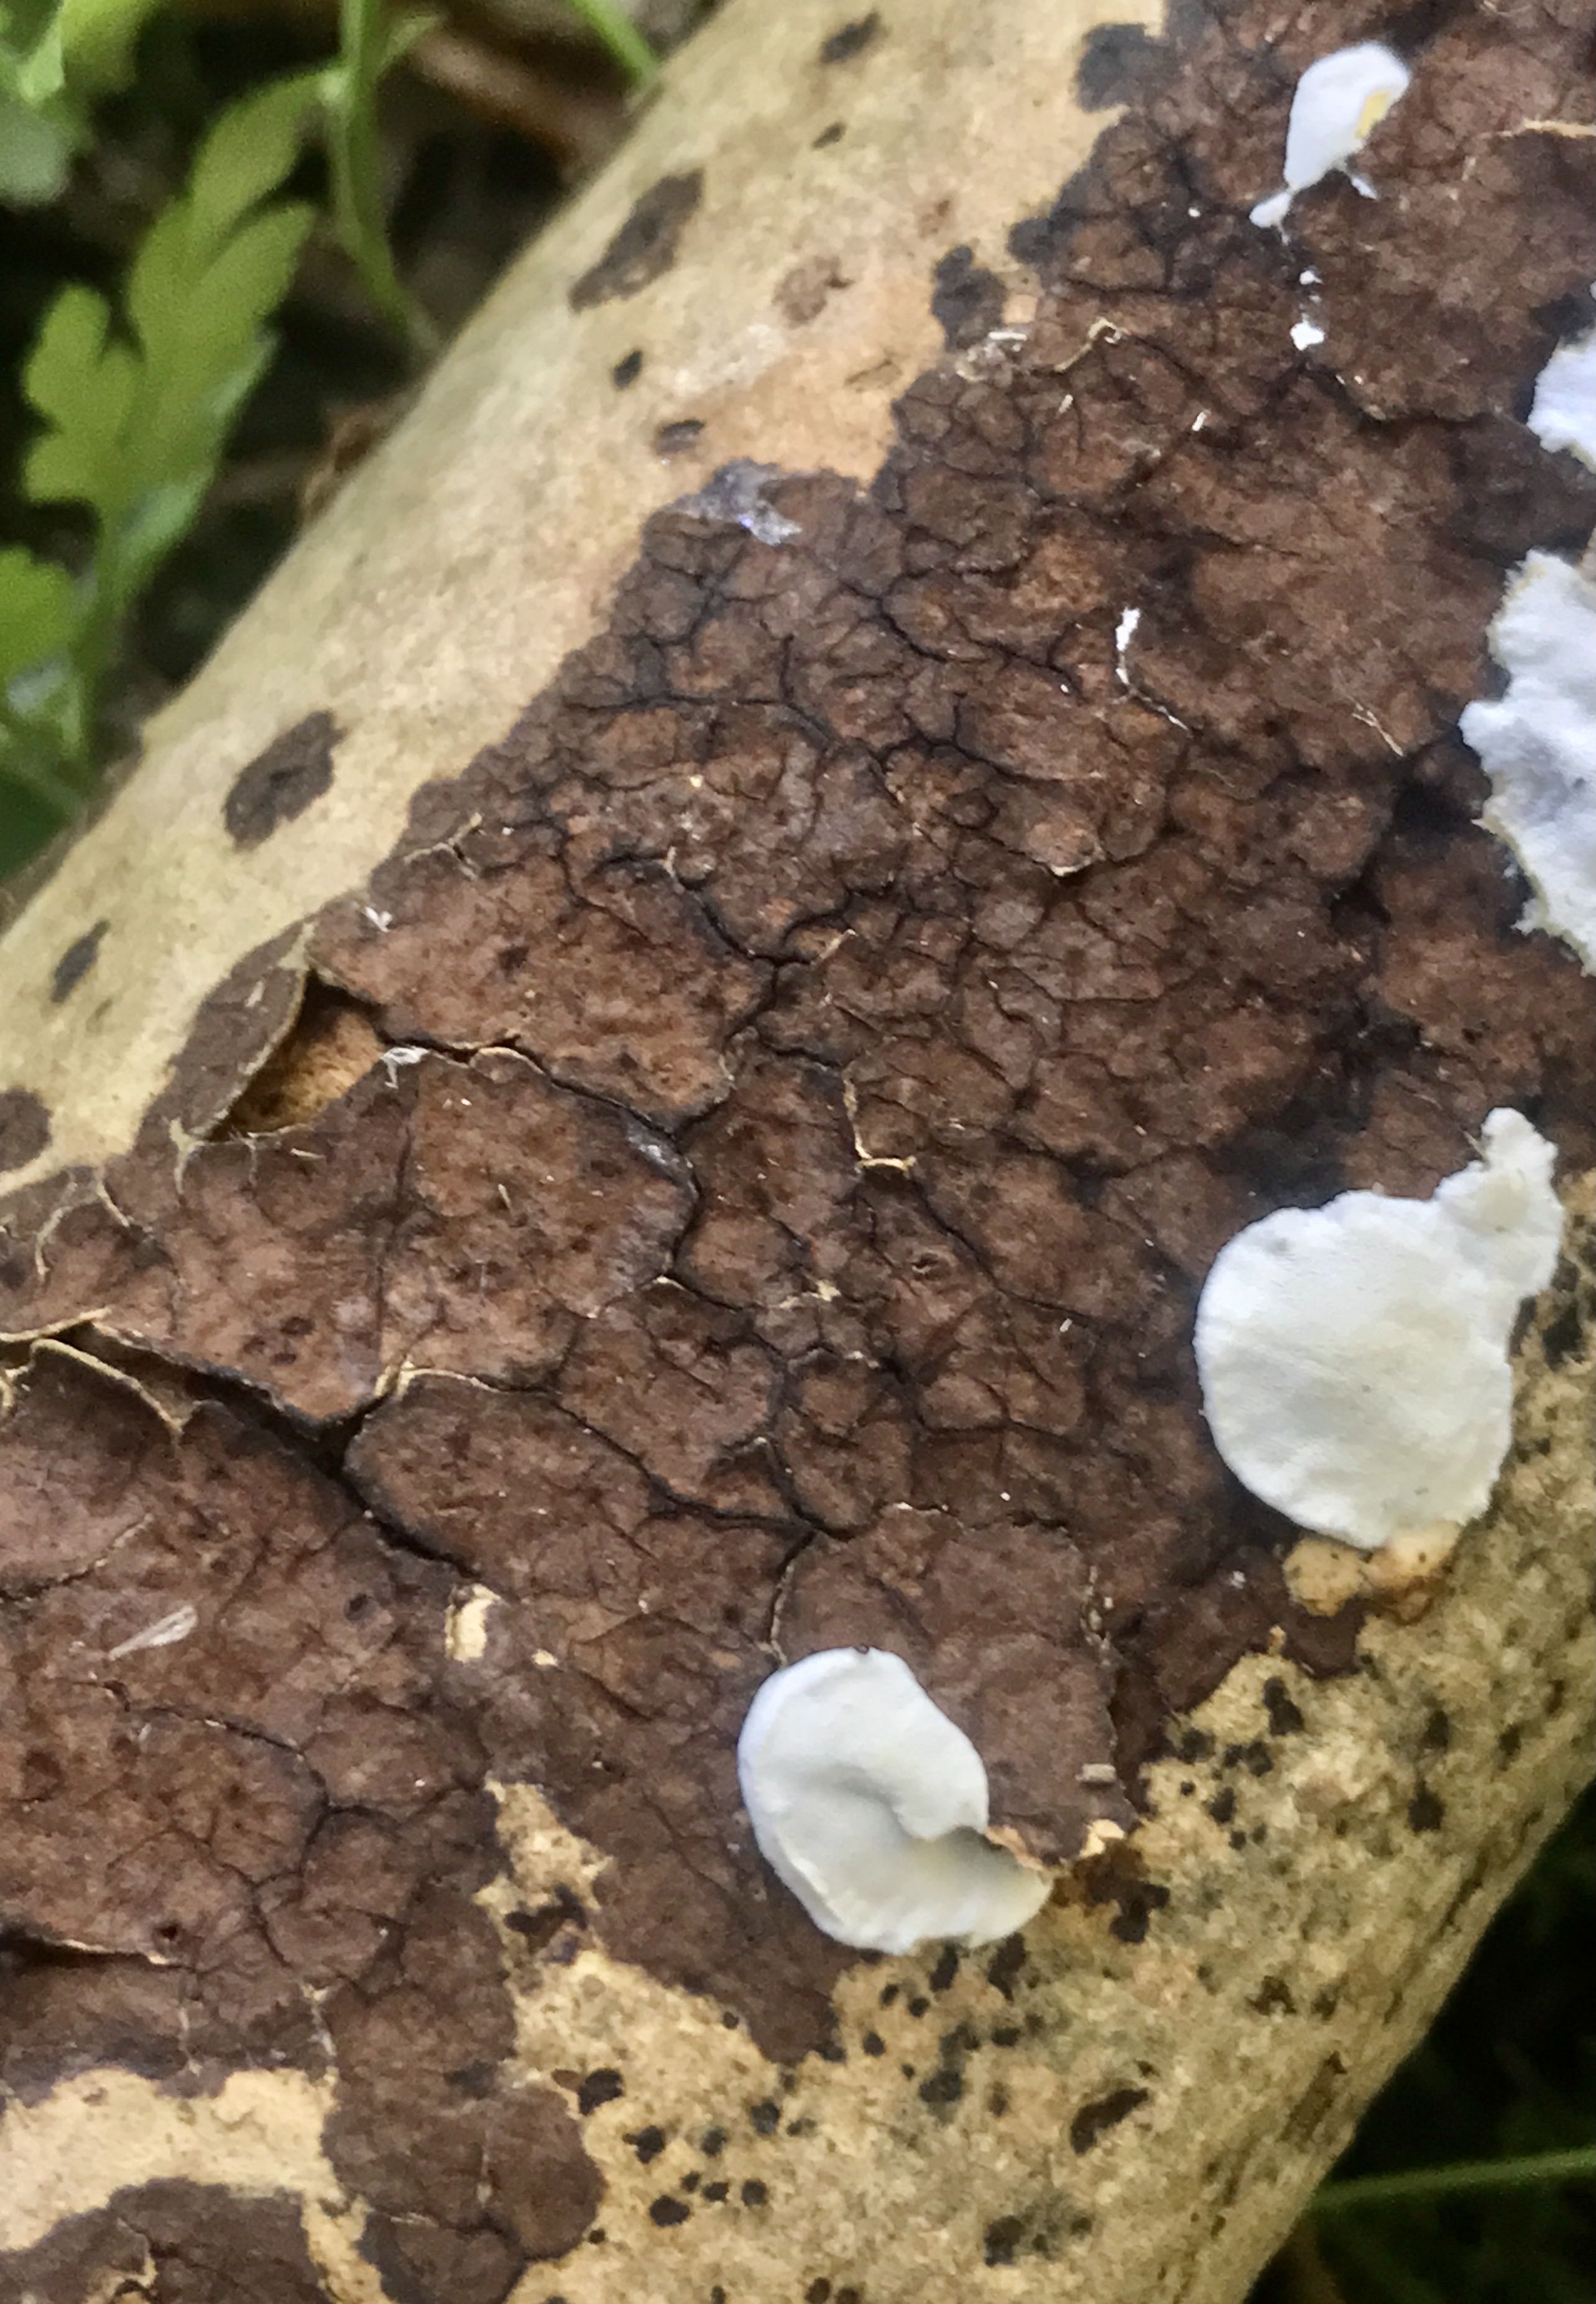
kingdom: Fungi
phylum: Basidiomycota
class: Agaricomycetes
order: Russulales
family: Peniophoraceae
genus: Peniophora
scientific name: Peniophora limitata
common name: mørkrandet voksskind
